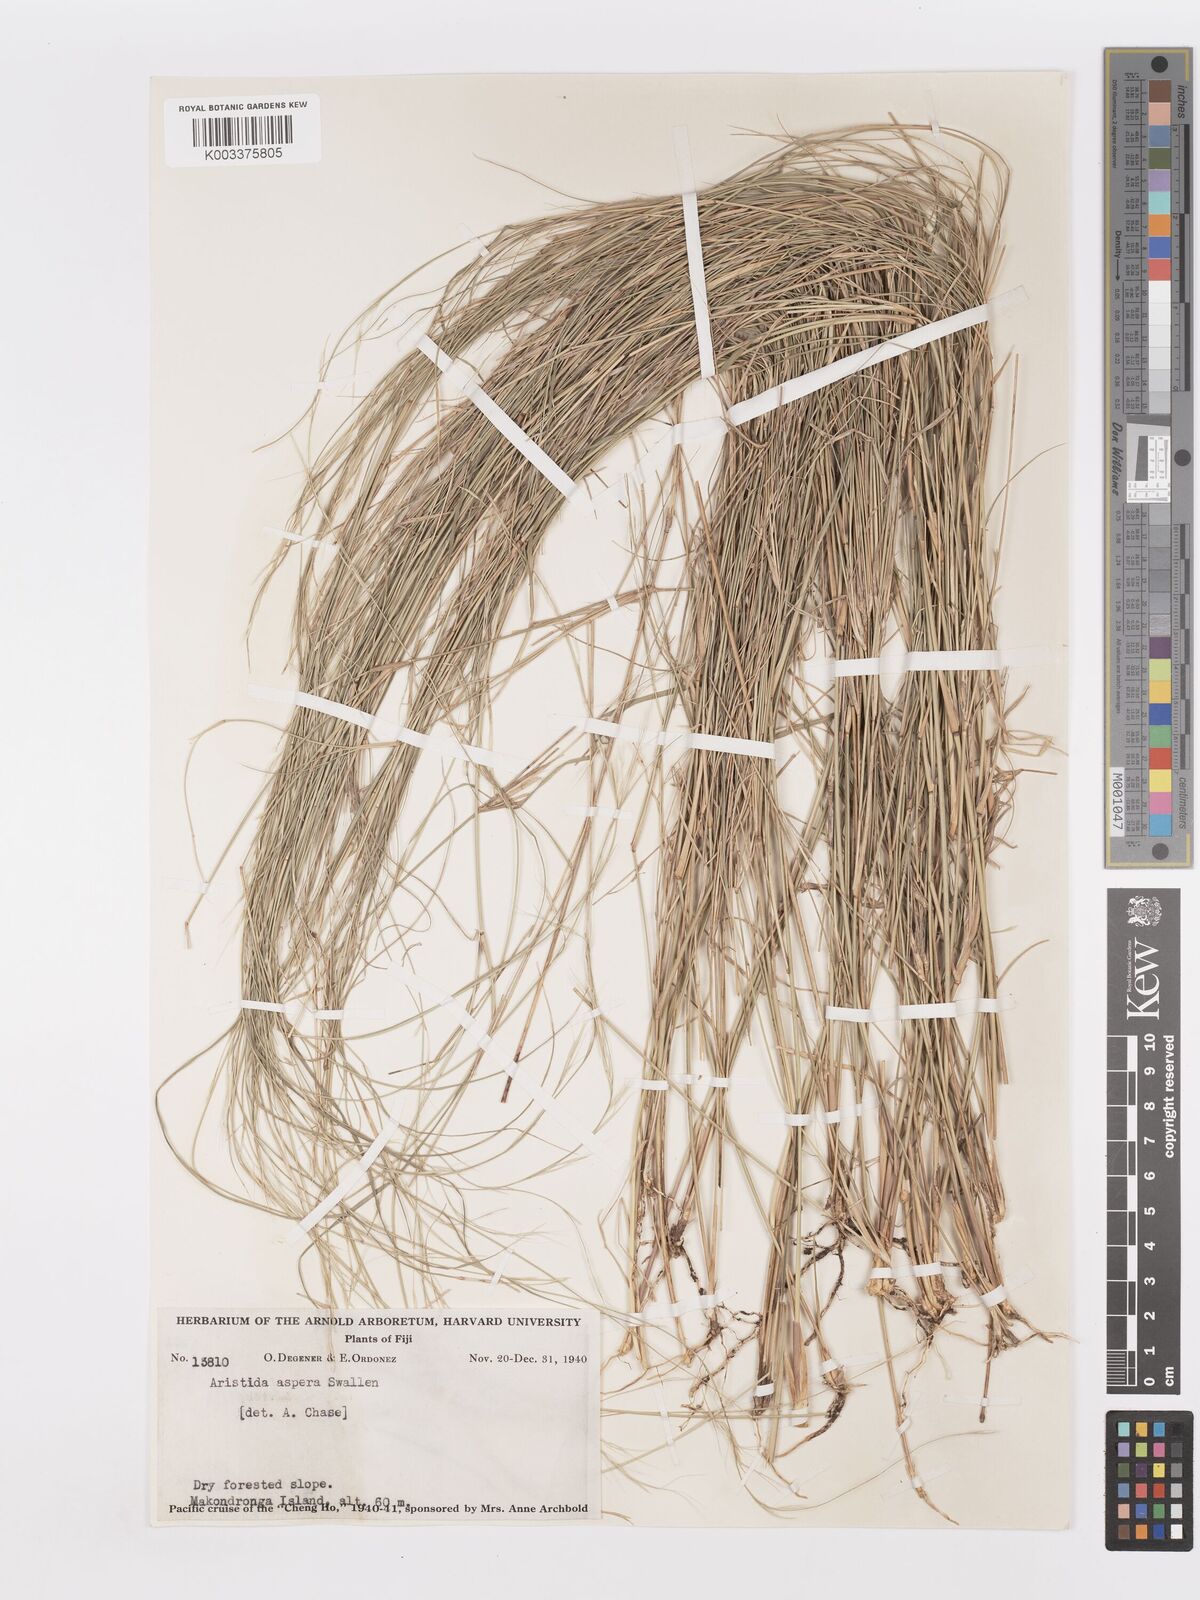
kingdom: Plantae
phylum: Tracheophyta
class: Liliopsida
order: Poales
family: Poaceae
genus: Aristida
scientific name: Aristida ramosa
